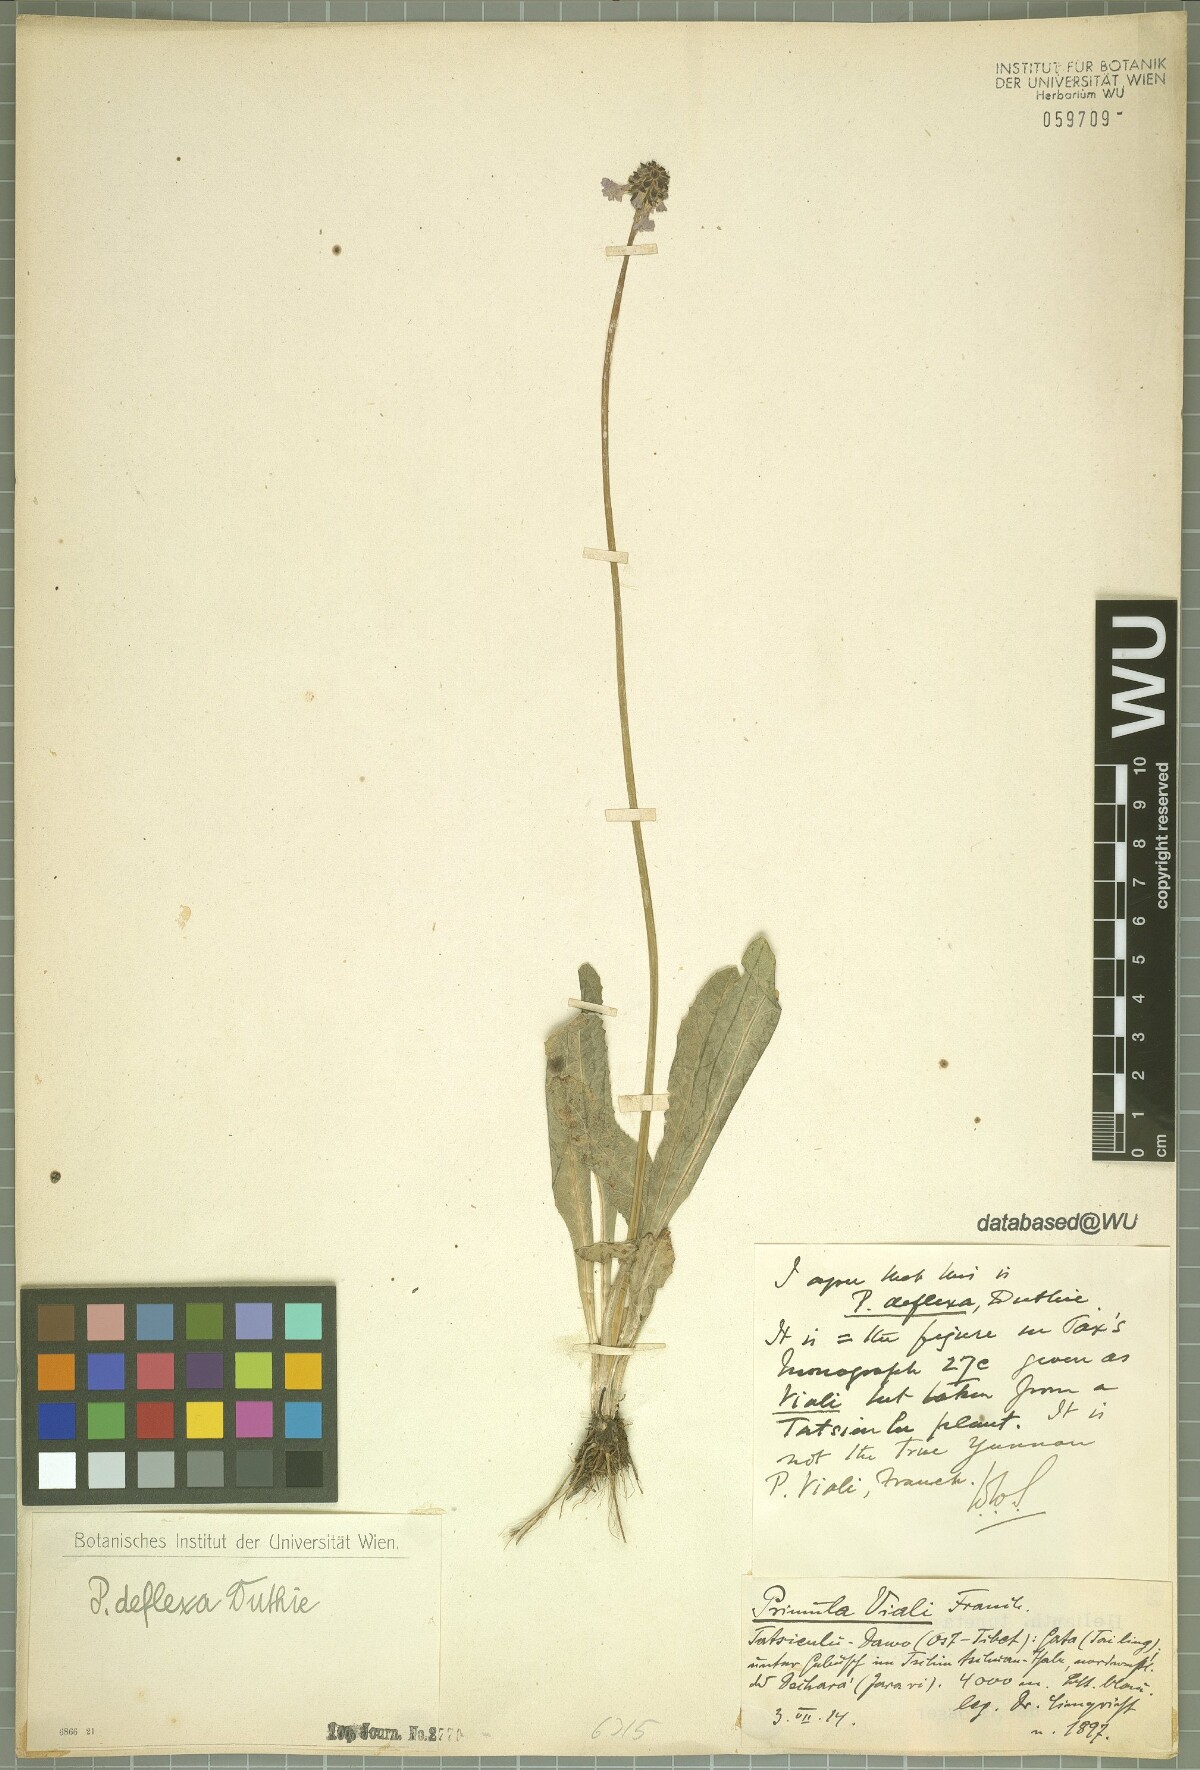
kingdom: Plantae
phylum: Tracheophyta
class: Magnoliopsida
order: Ericales
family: Primulaceae
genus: Primula
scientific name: Primula deflexa
